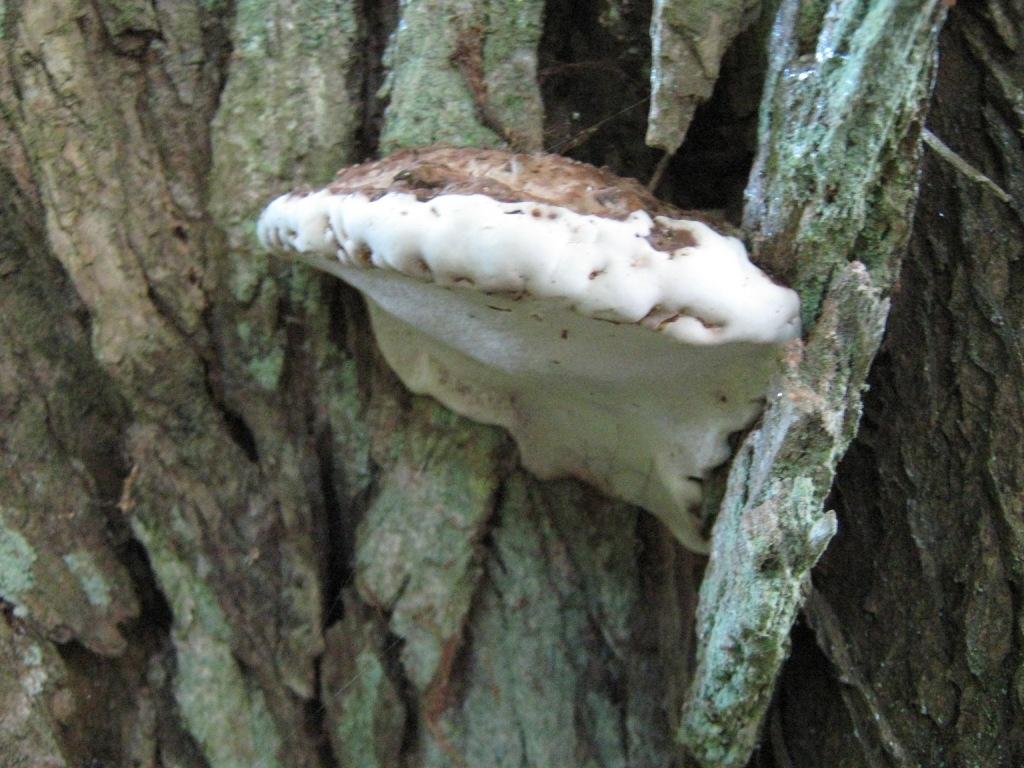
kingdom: Fungi
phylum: Basidiomycota
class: Agaricomycetes
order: Polyporales
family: Polyporaceae
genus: Ganoderma
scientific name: Ganoderma applanatum
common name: flad lakporesvamp
